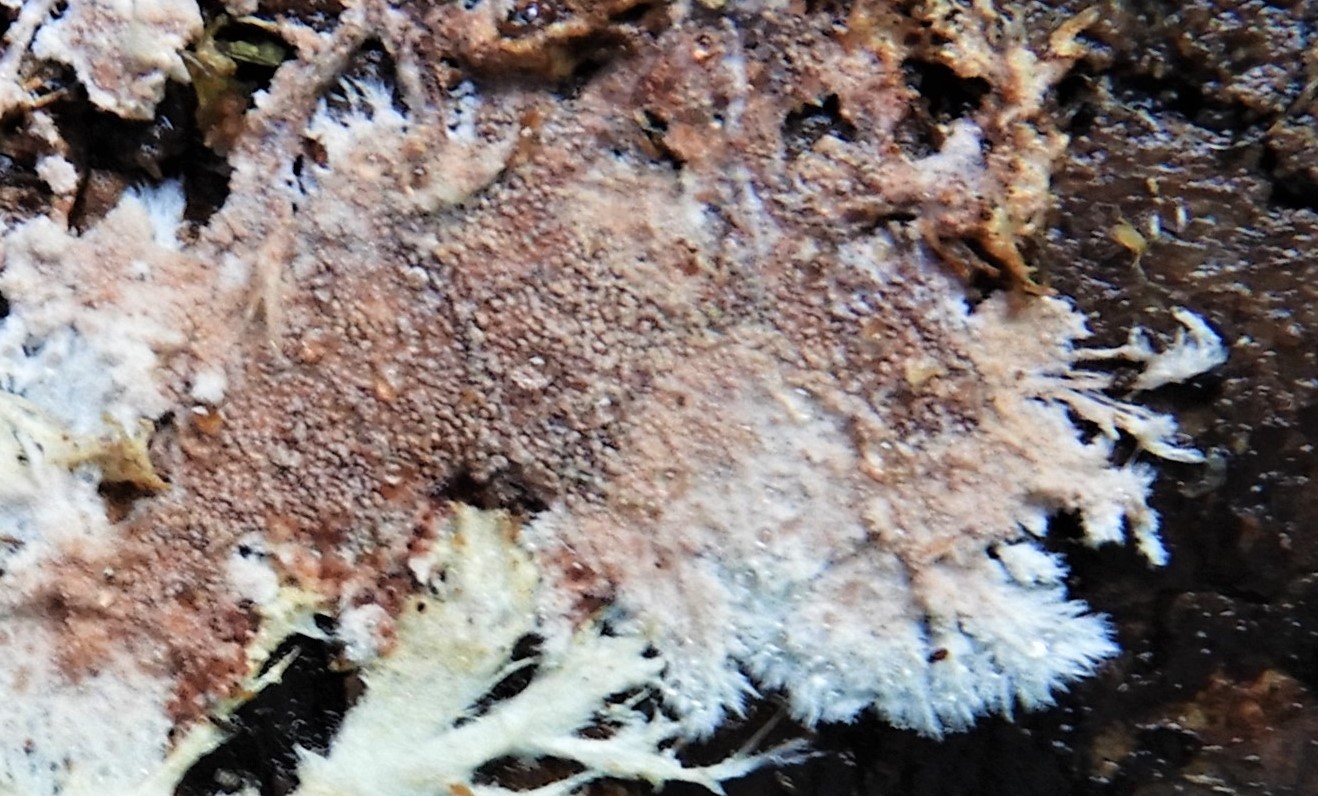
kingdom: Fungi
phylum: Basidiomycota
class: Agaricomycetes
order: Polyporales
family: Steccherinaceae
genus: Steccherinum
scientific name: Steccherinum fimbriatum
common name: trådet skønpig
